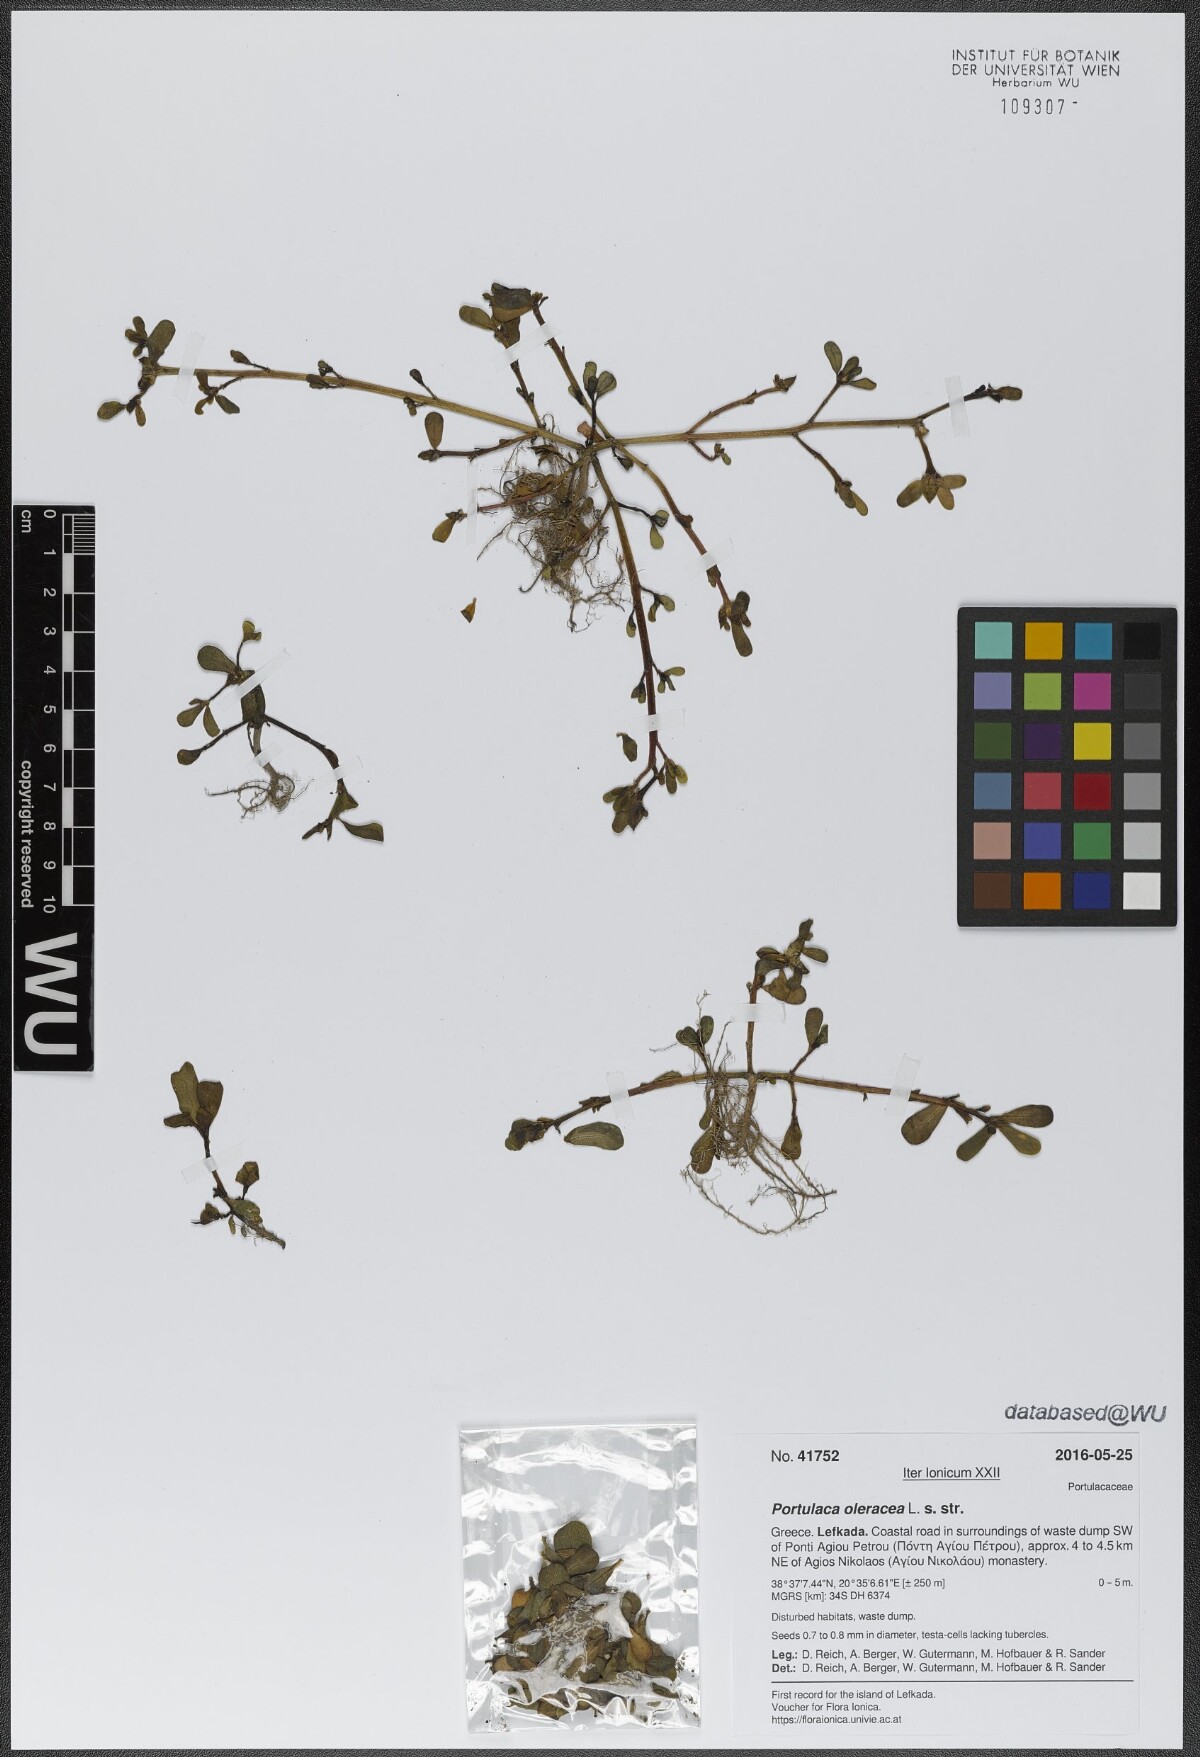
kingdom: Plantae
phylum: Tracheophyta
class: Magnoliopsida
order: Caryophyllales
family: Portulacaceae
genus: Portulaca
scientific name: Portulaca oleracea
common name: Common purslane
